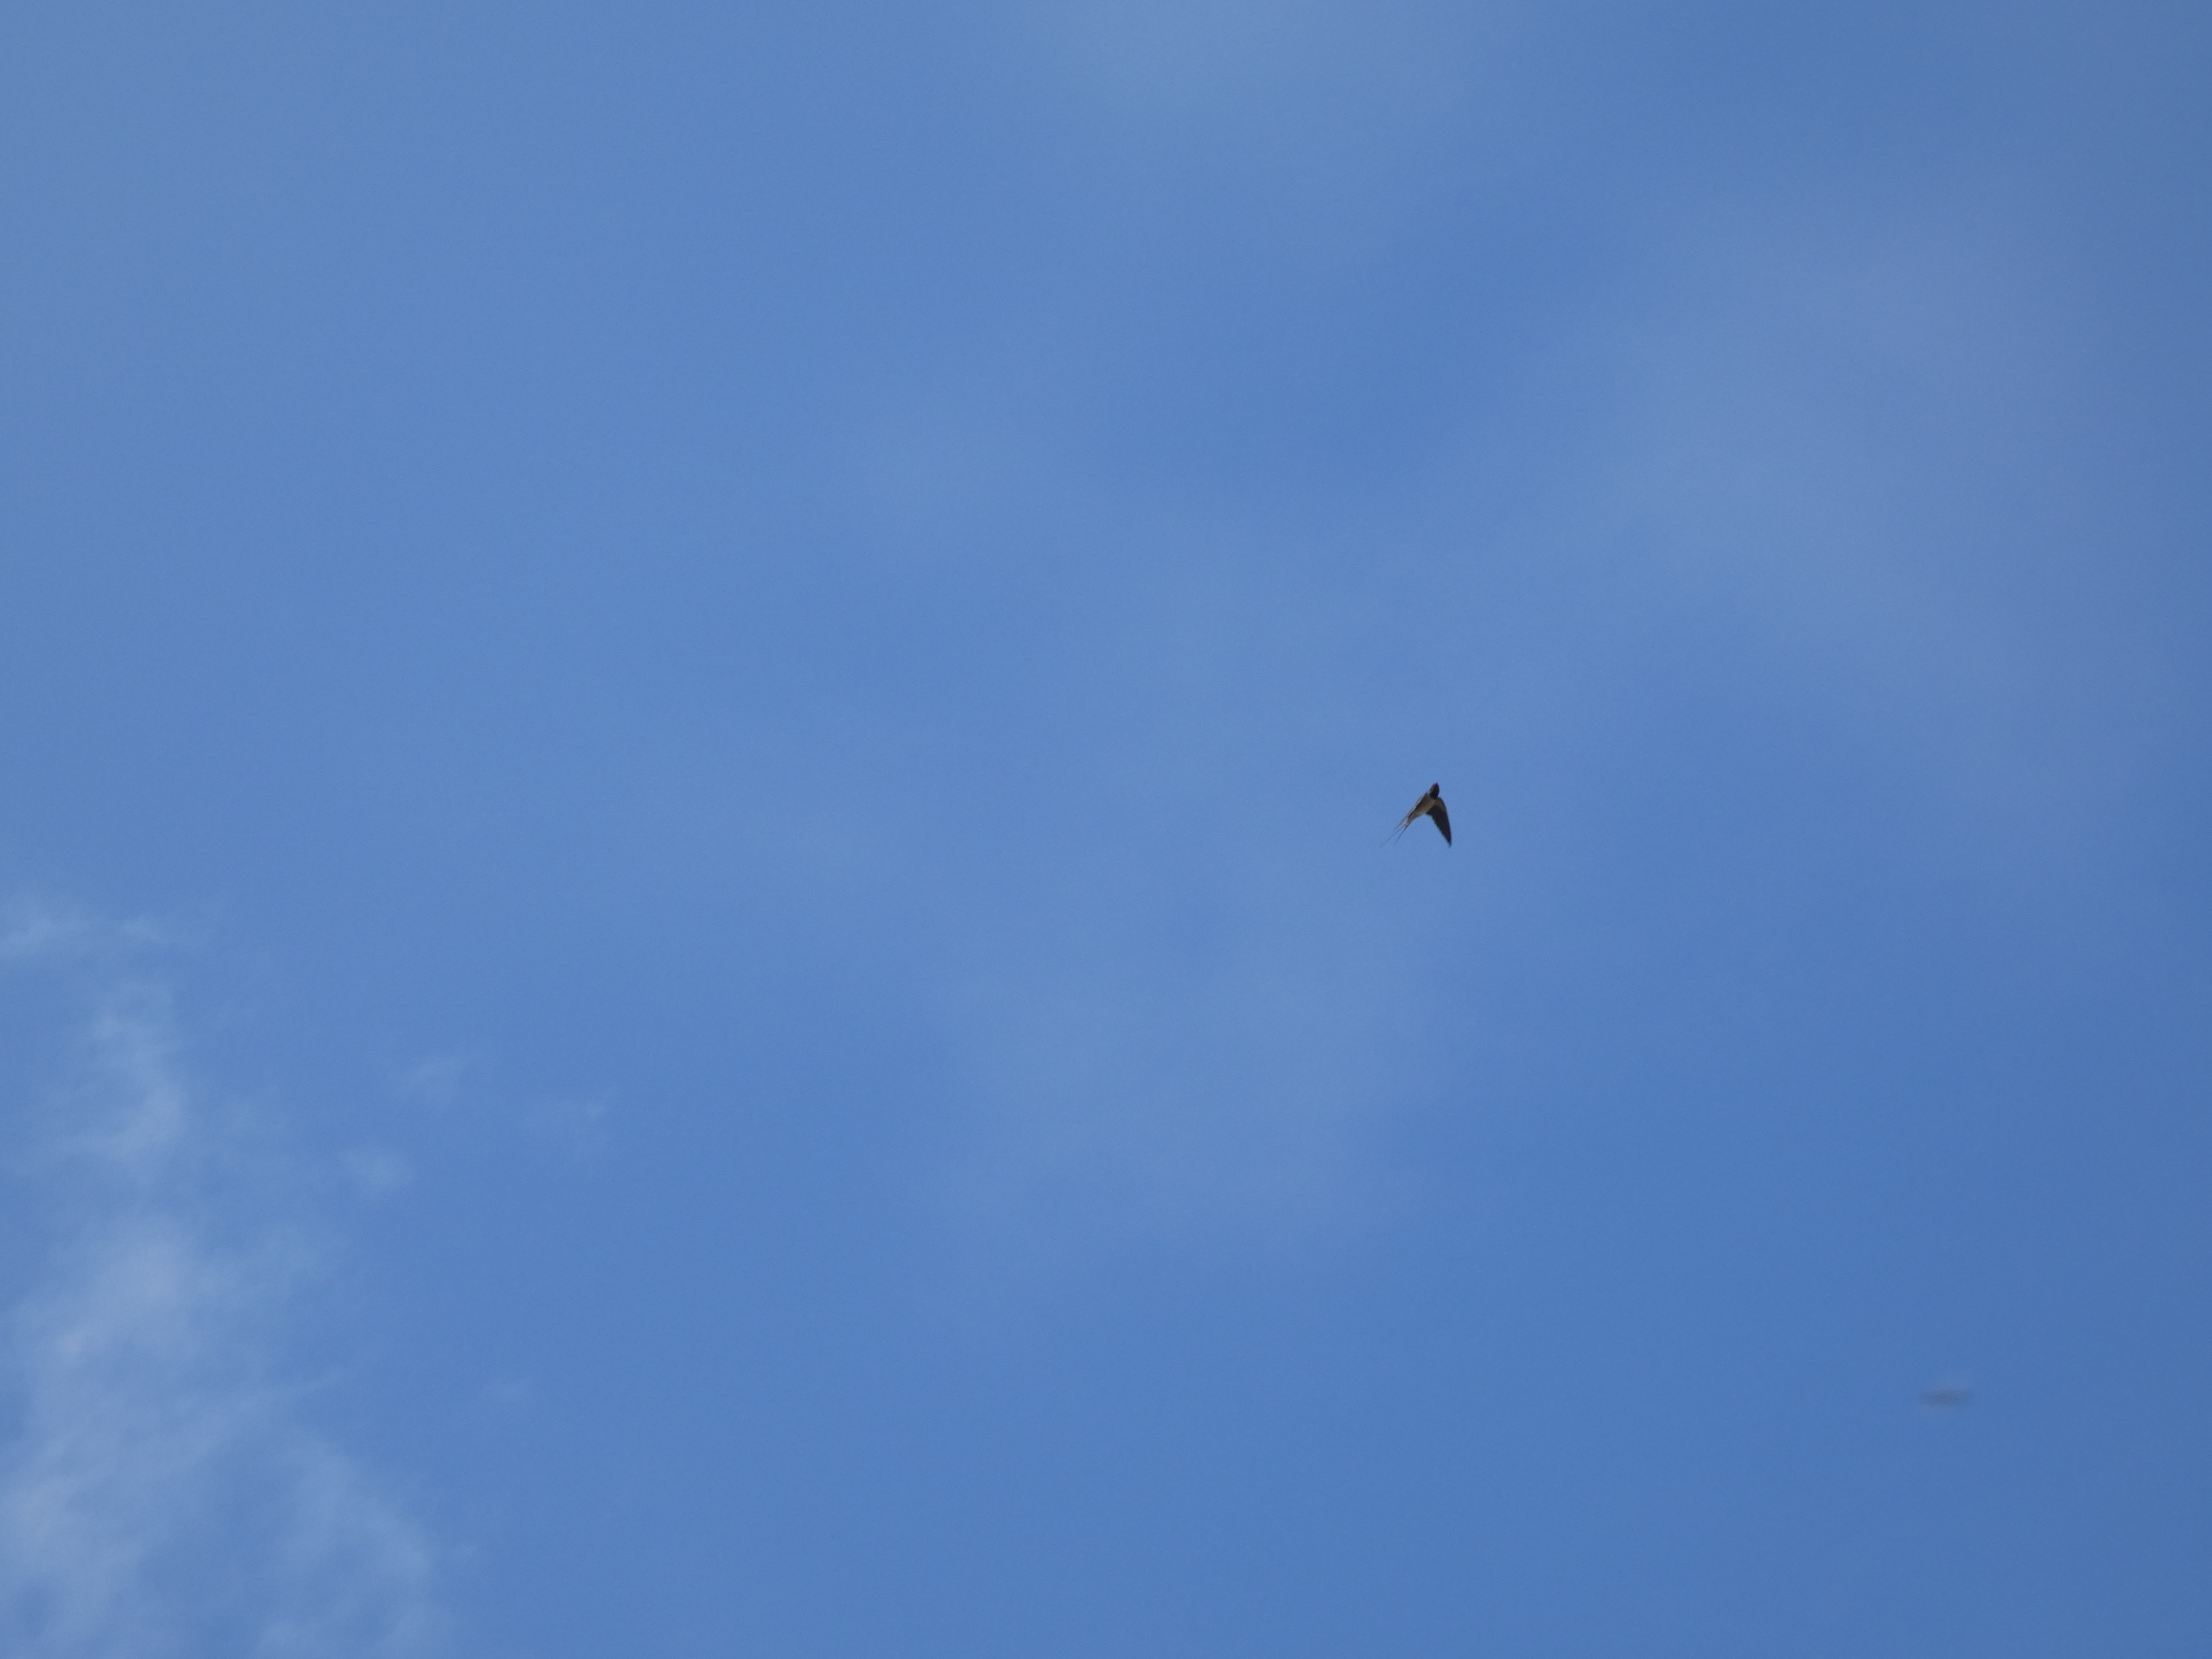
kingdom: Animalia
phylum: Chordata
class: Aves
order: Passeriformes
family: Hirundinidae
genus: Hirundo
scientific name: Hirundo rustica
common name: Landsvale
